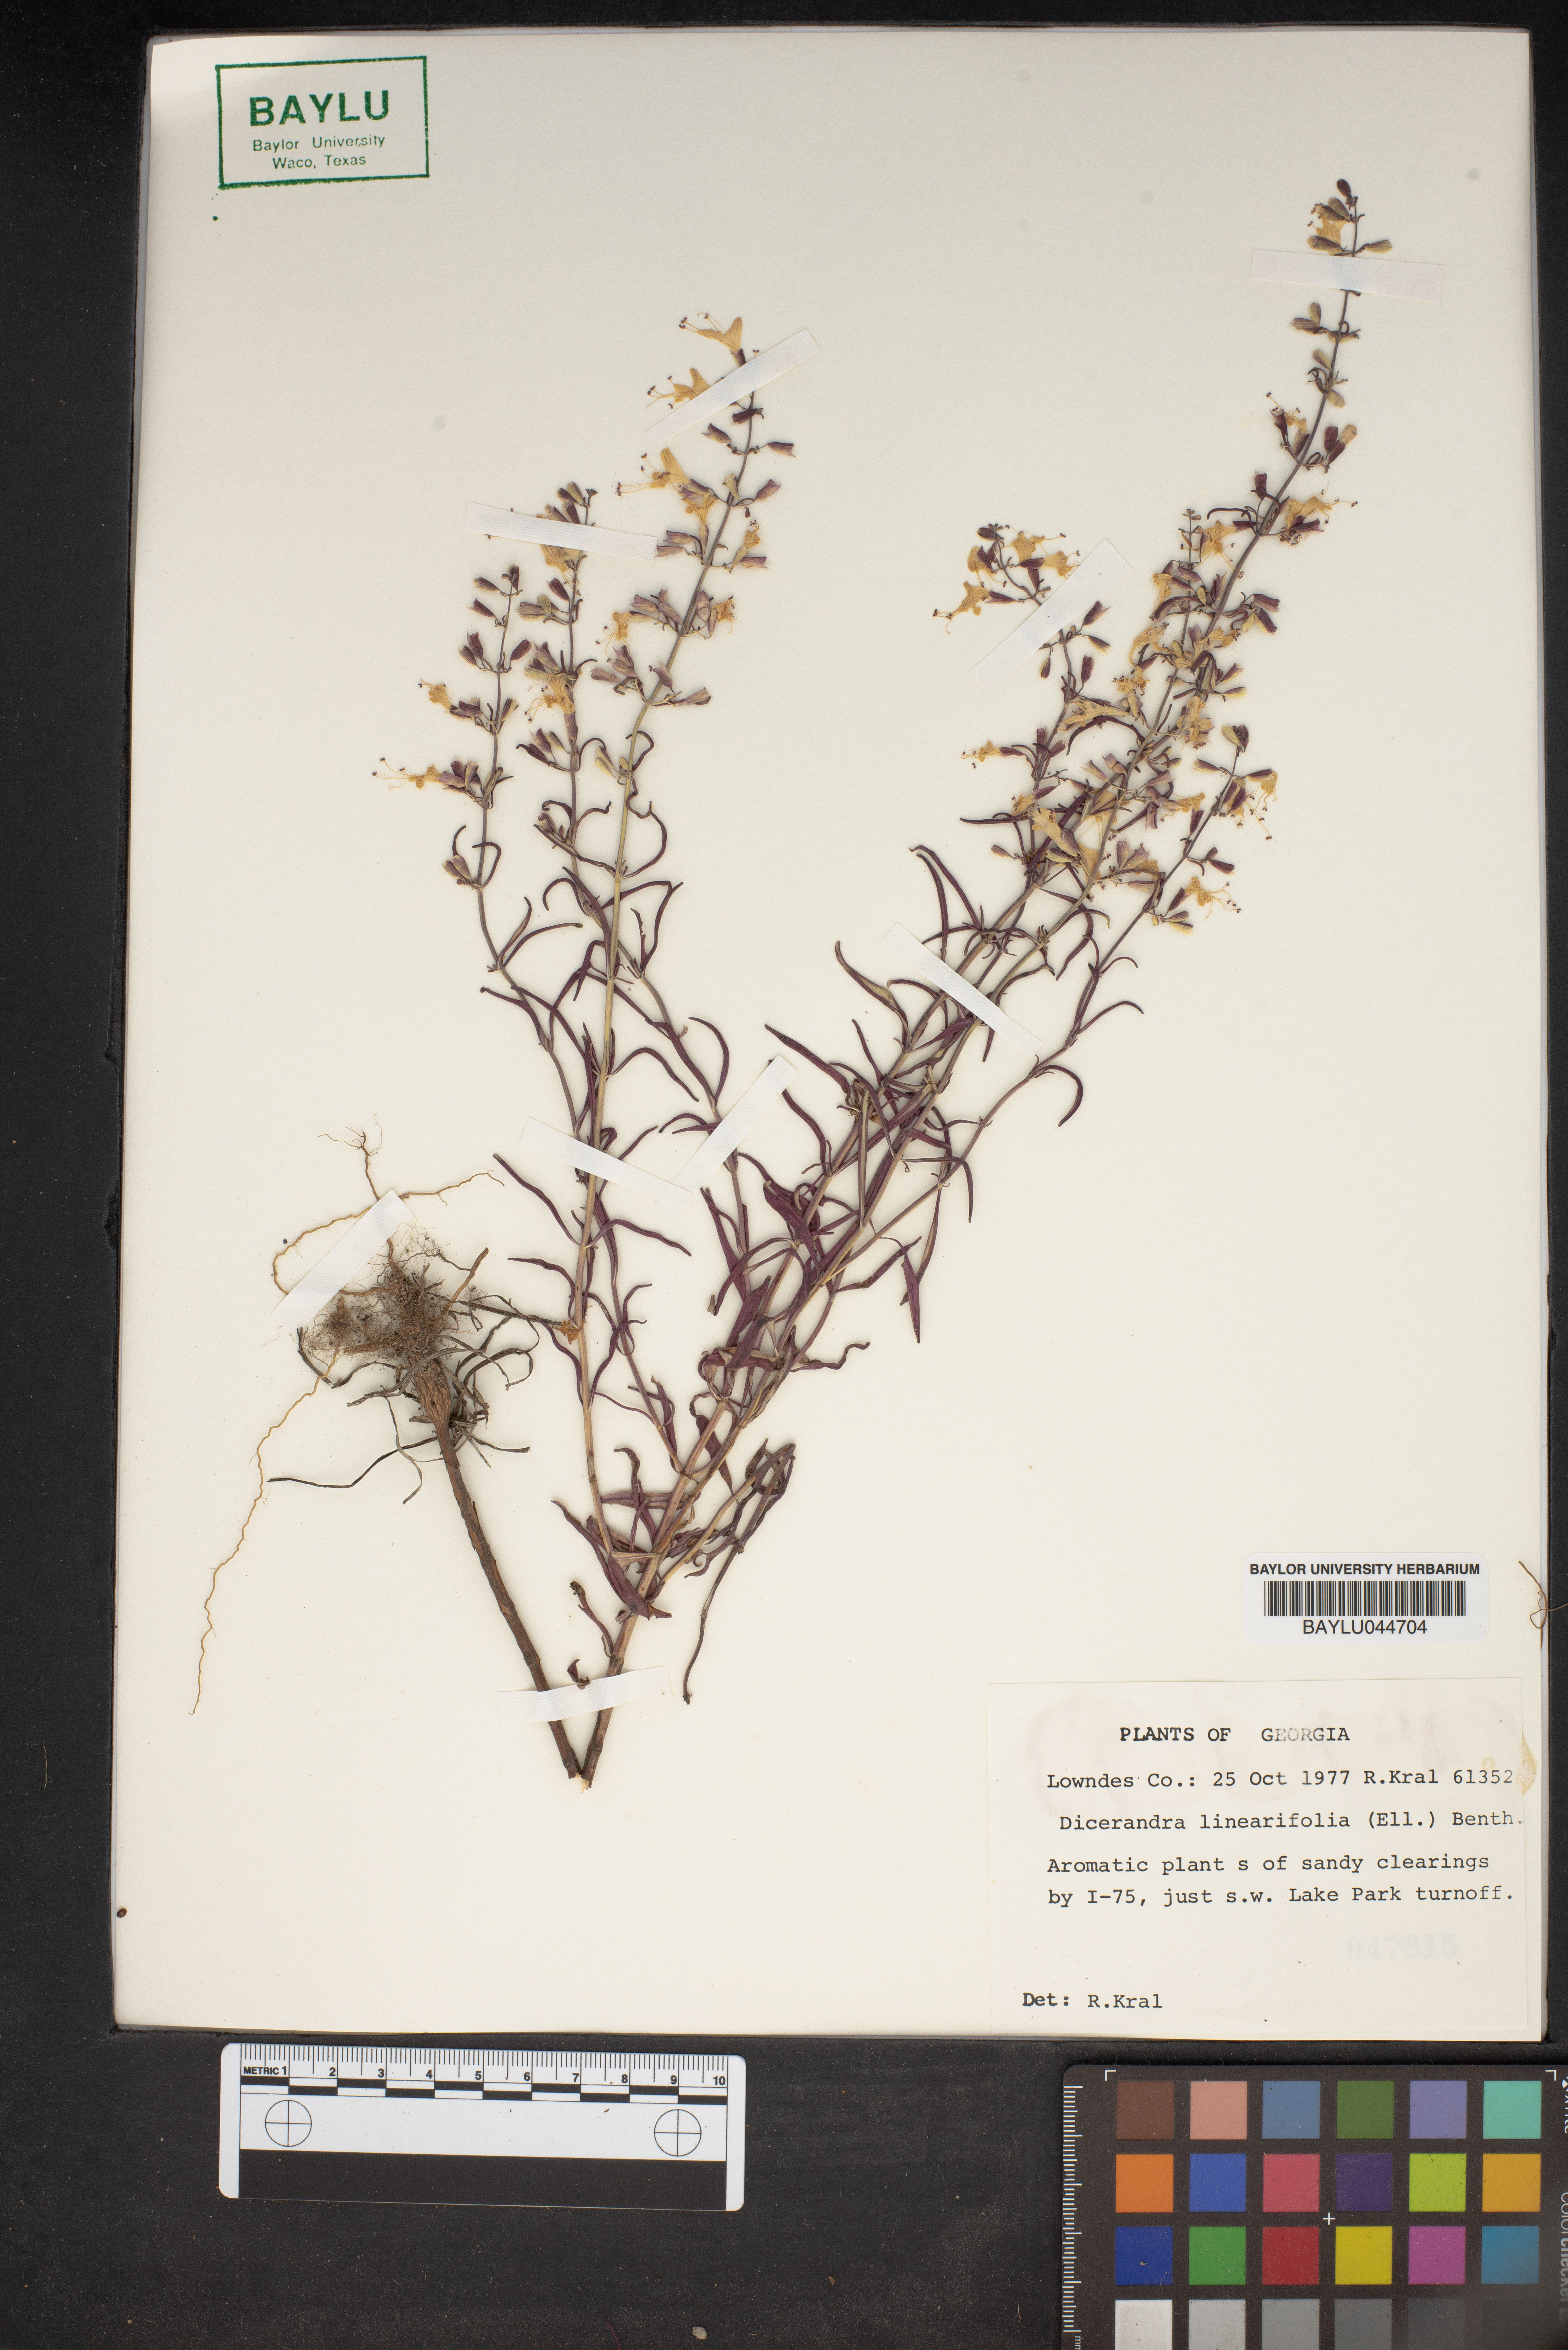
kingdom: Plantae
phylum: Tracheophyta
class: Magnoliopsida
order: Lamiales
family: Lamiaceae
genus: Dicerandra
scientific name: Dicerandra linearifolia
